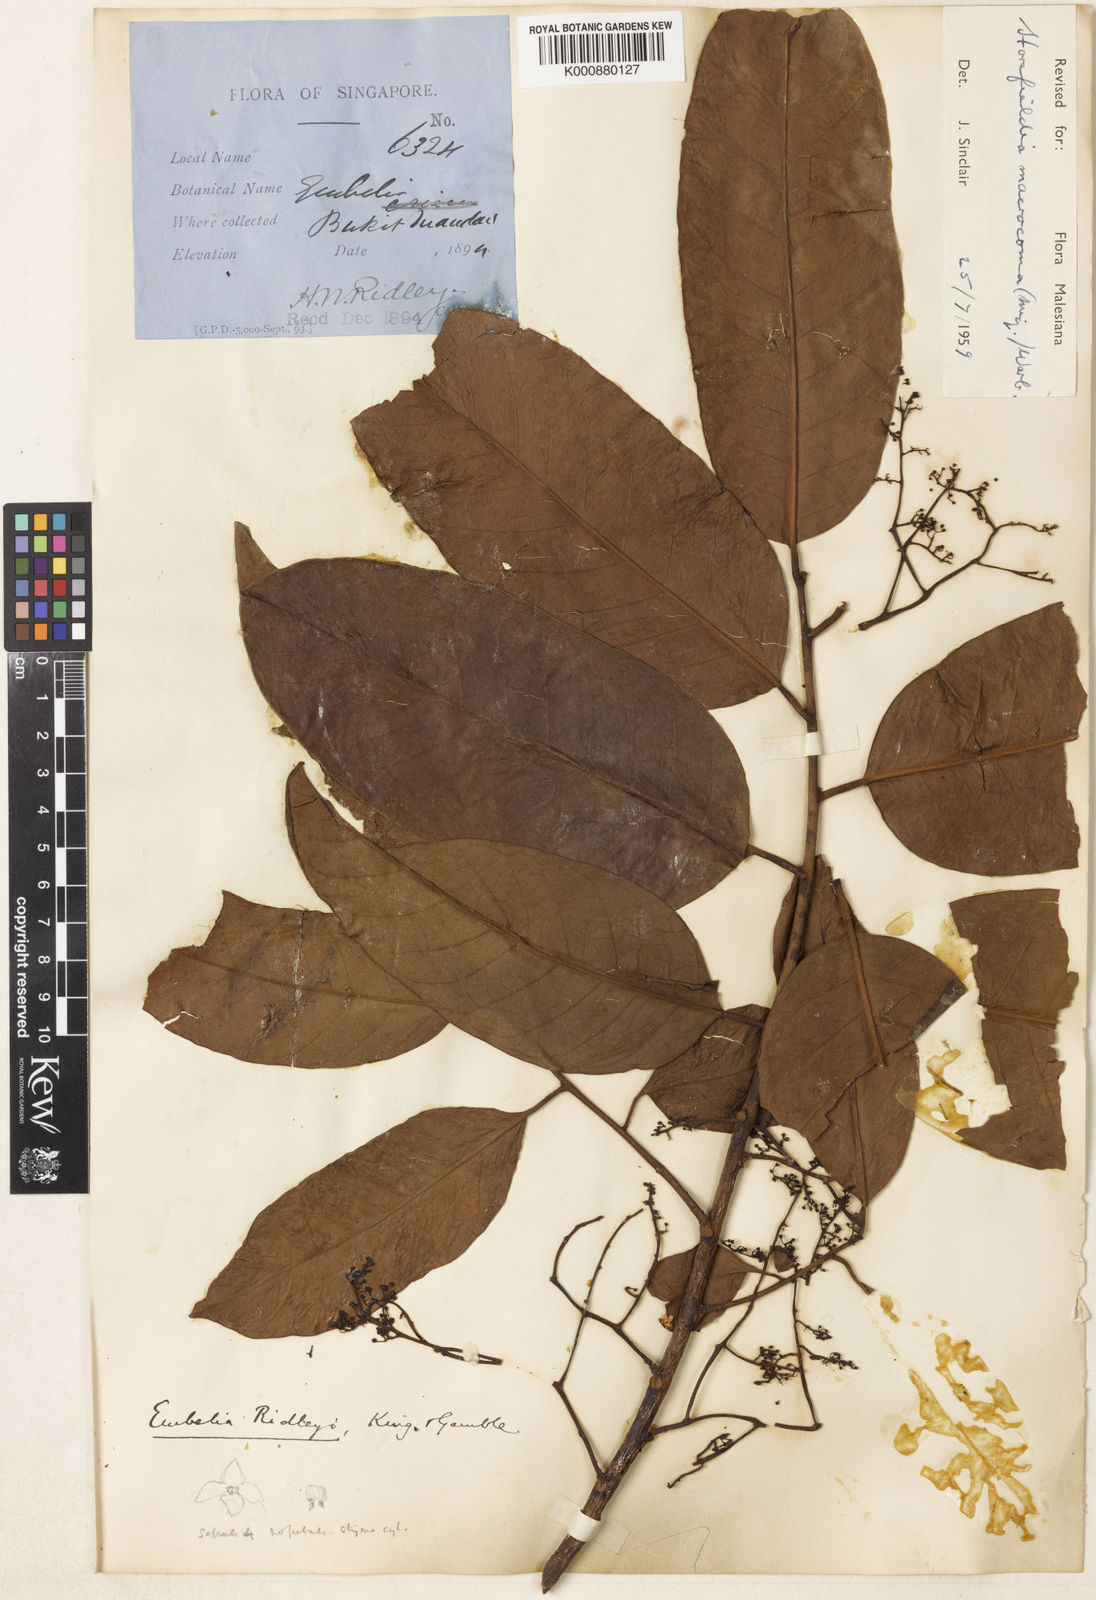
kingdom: Plantae
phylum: Tracheophyta
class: Magnoliopsida
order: Magnoliales
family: Myristicaceae
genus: Endocomia
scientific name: Endocomia canarioides
